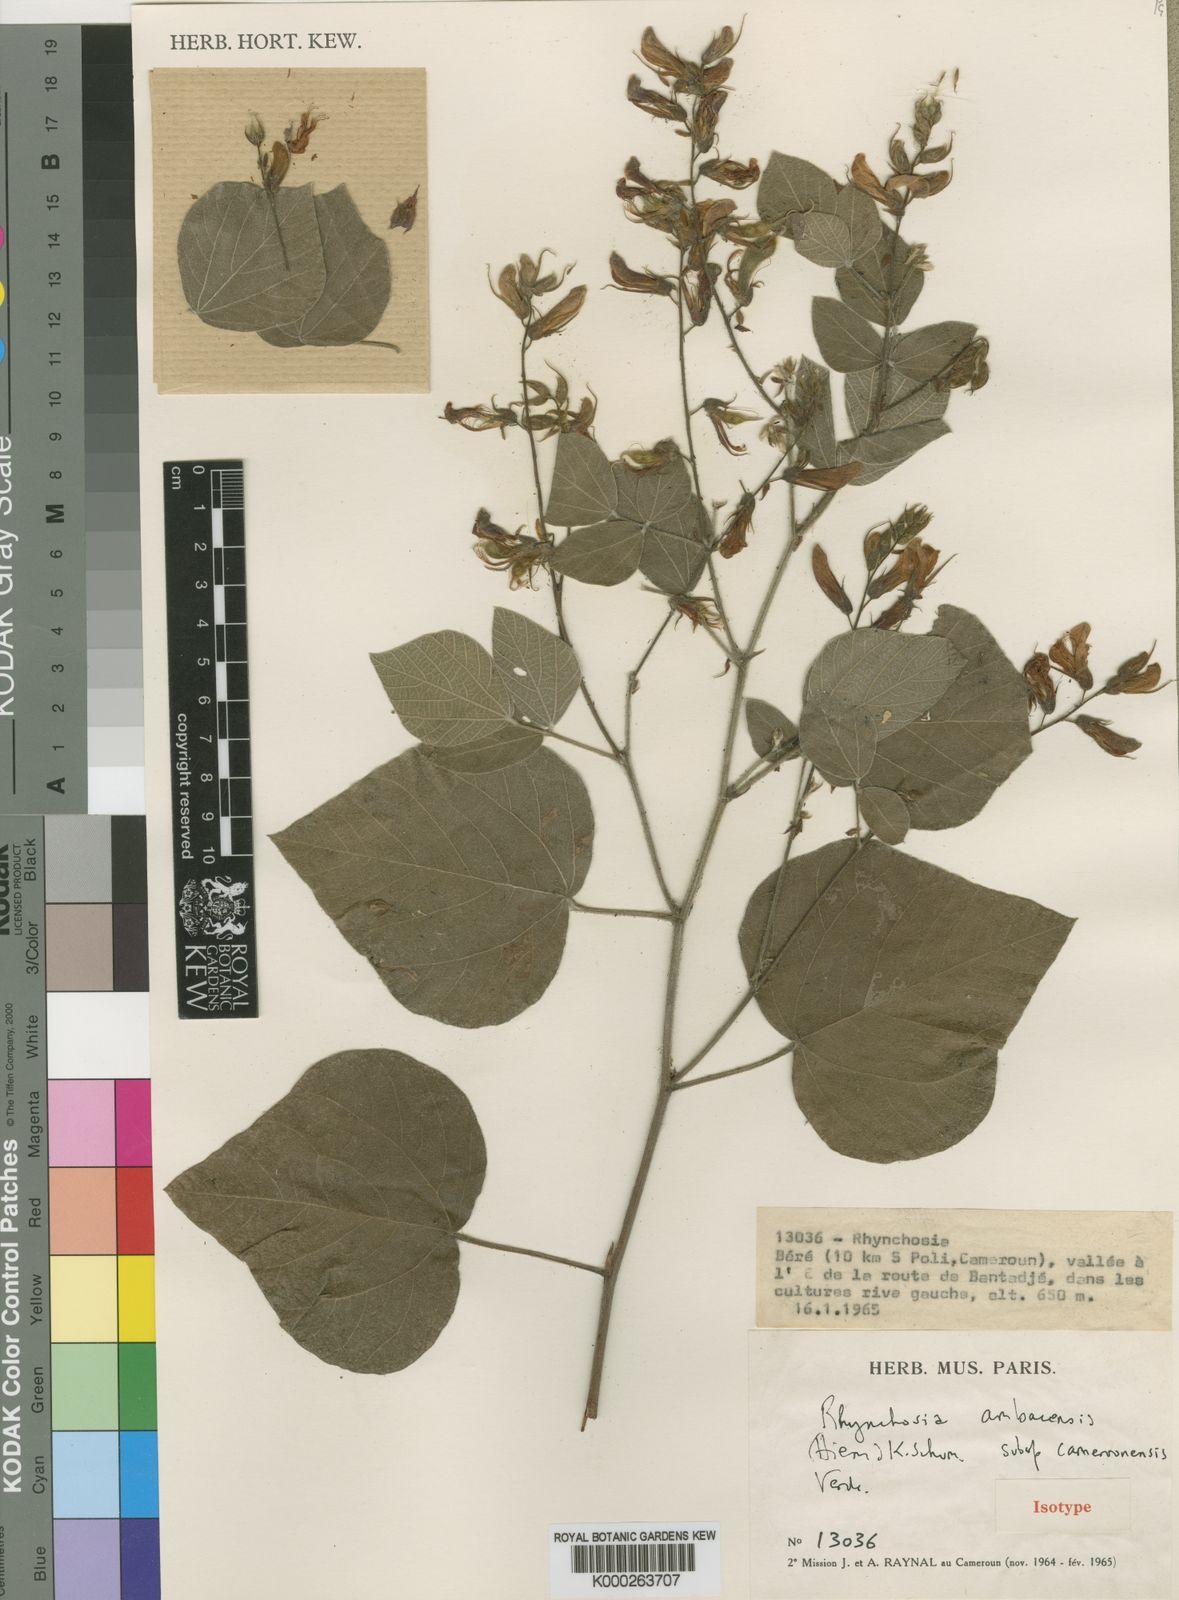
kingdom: Plantae
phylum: Tracheophyta
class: Magnoliopsida
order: Fabales
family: Fabaceae
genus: Rhynchosia
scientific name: Rhynchosia ambacensis
